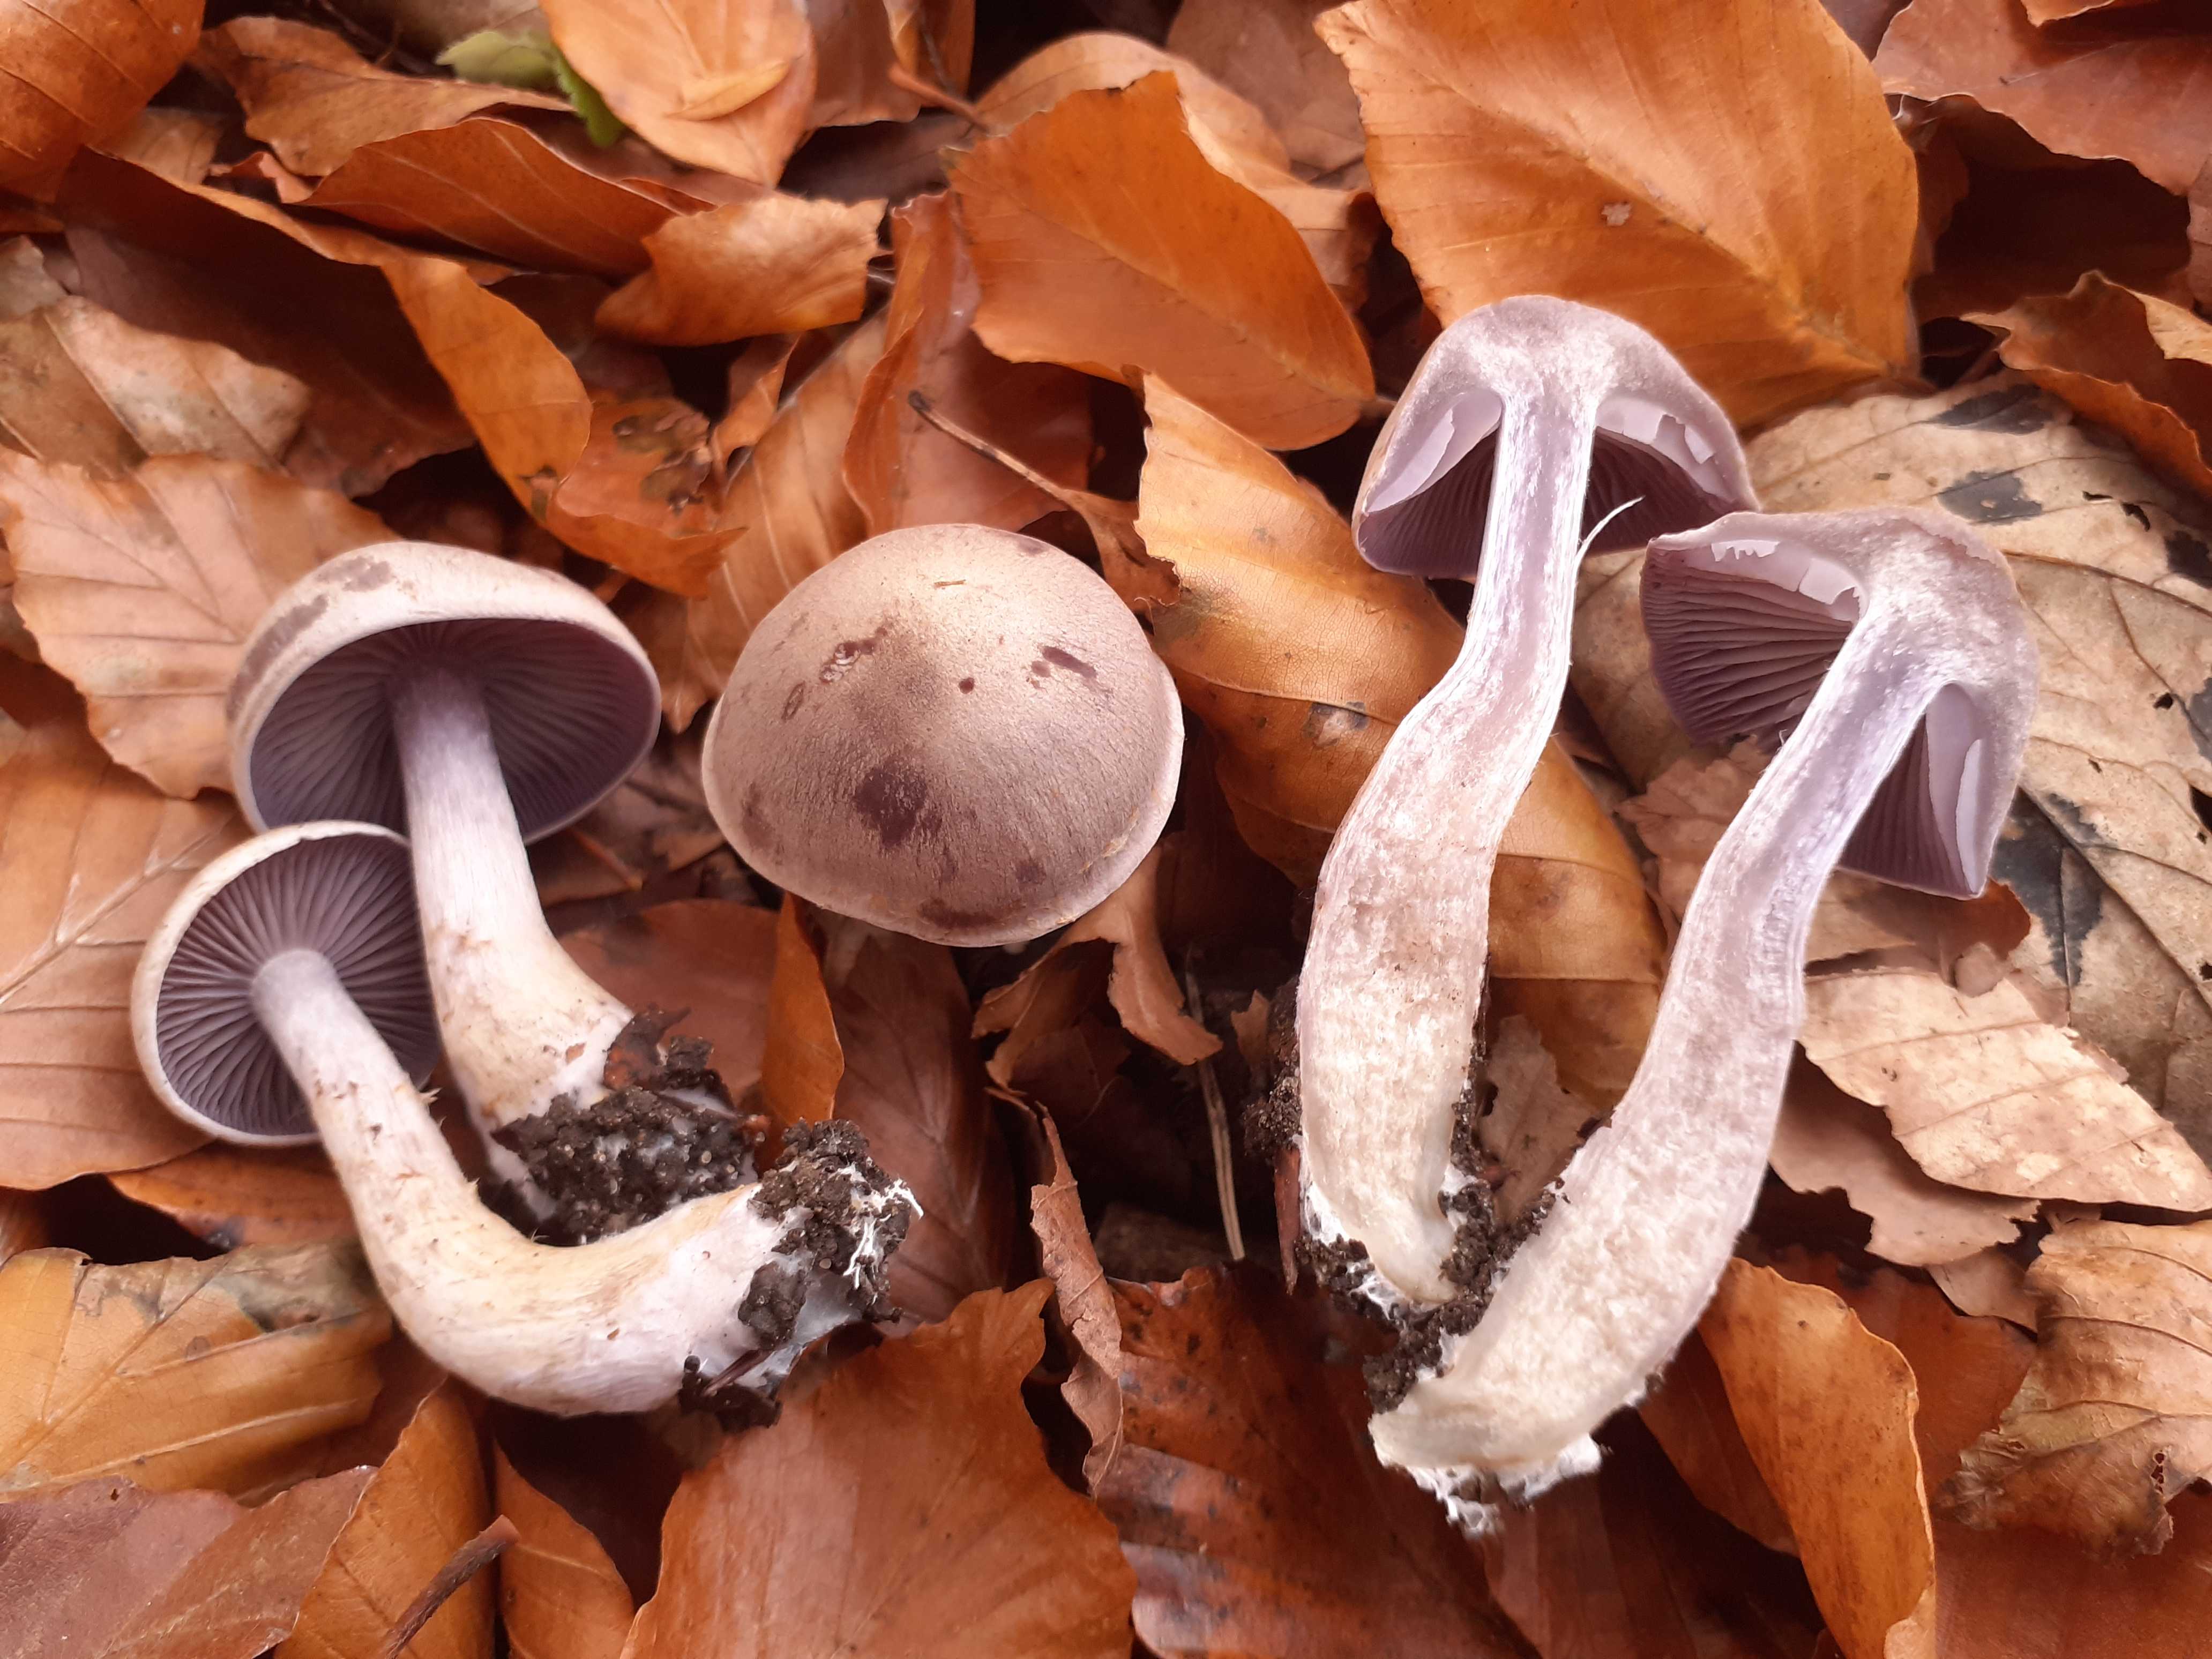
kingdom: Fungi
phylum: Basidiomycota
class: Agaricomycetes
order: Agaricales
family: Cortinariaceae
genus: Cortinarius
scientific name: Cortinarius pelerinii
